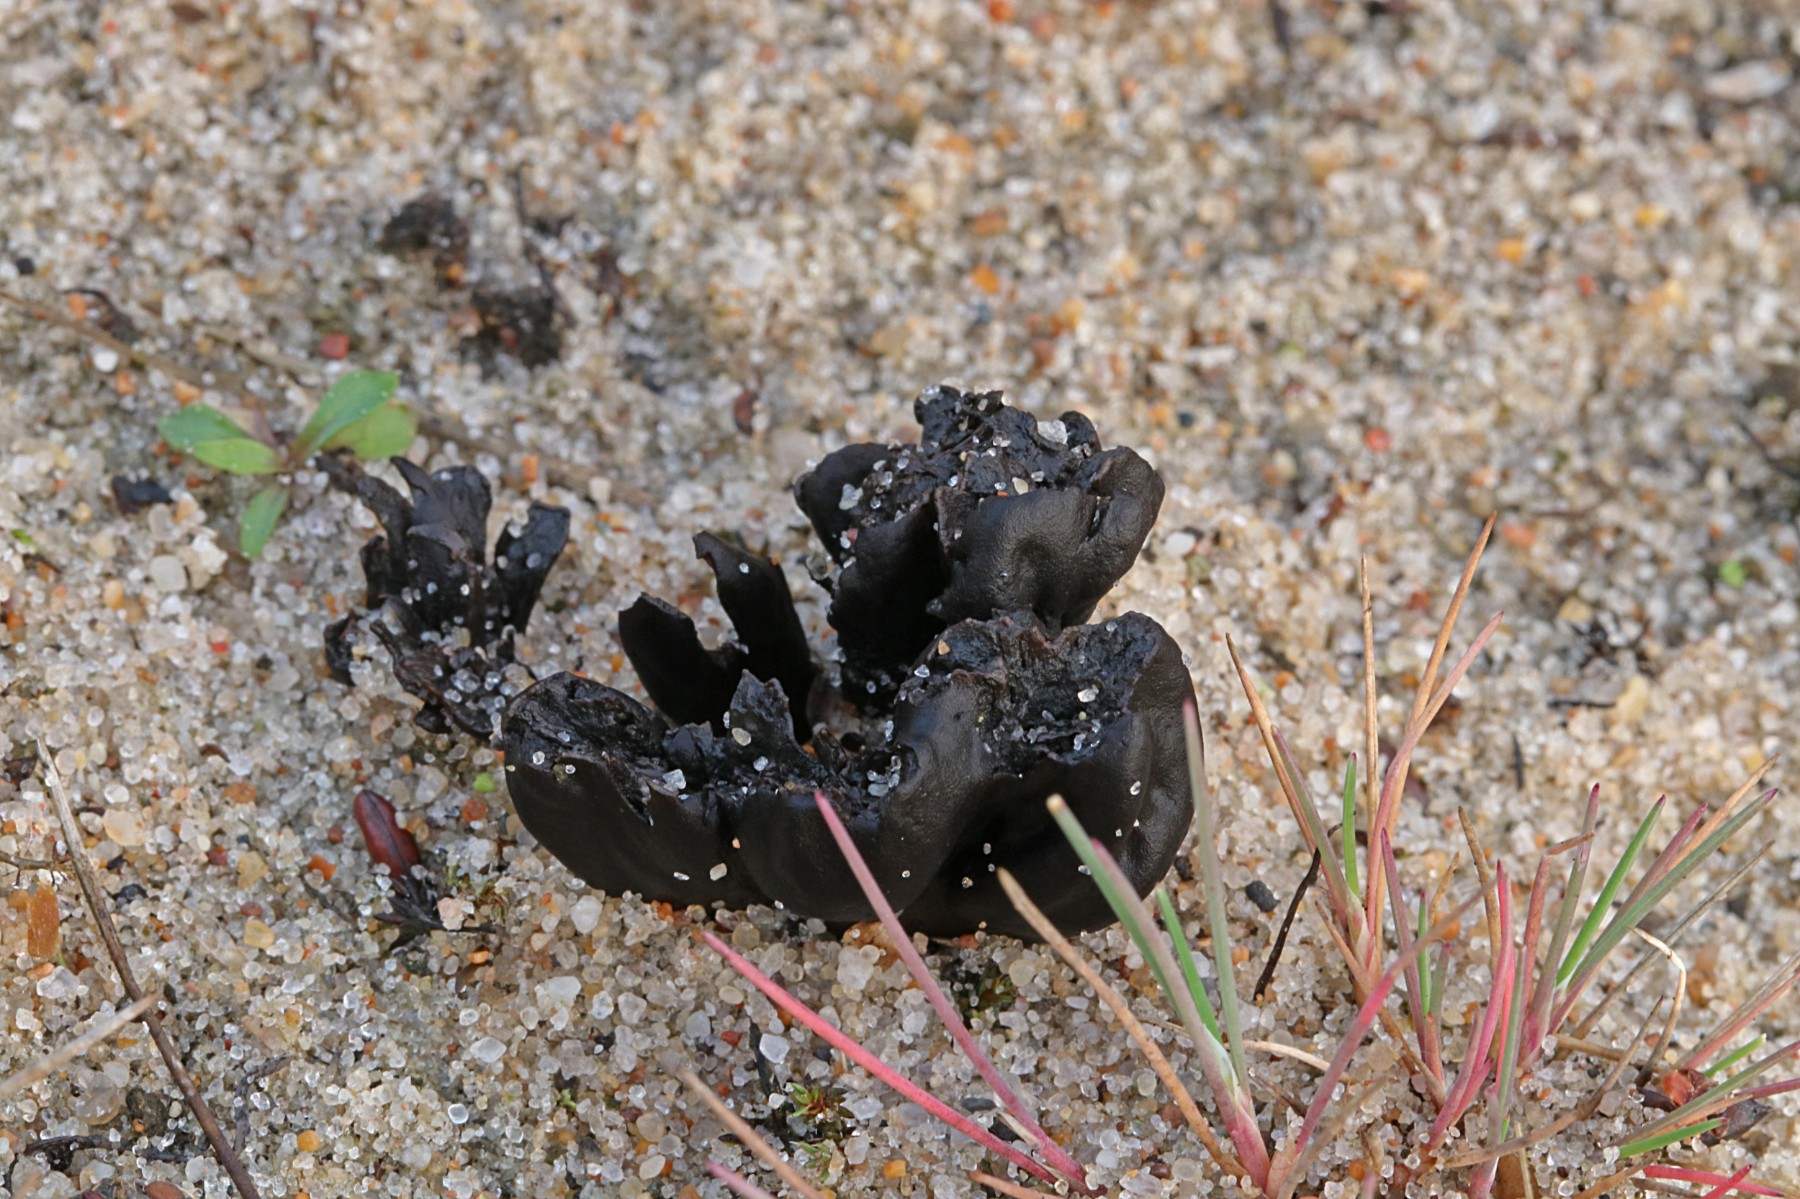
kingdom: Fungi
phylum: Ascomycota
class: Geoglossomycetes
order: Geoglossales
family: Geoglossaceae
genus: Sabuloglossum
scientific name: Sabuloglossum arenarium
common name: klit-jordtunge
